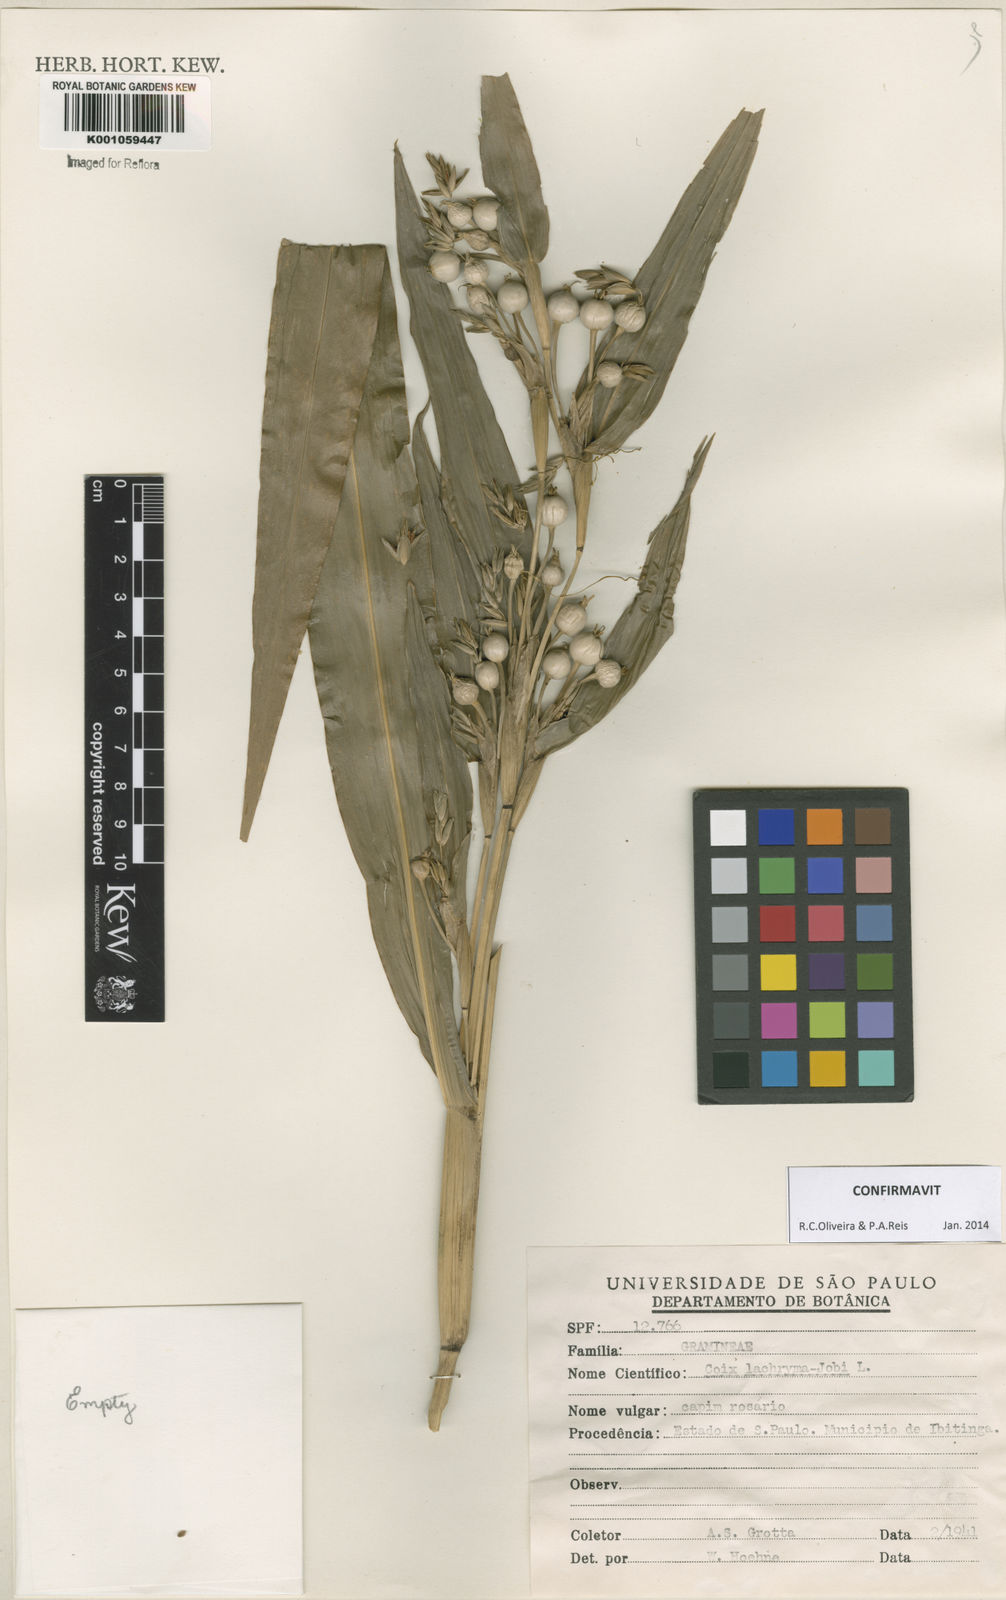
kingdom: Plantae
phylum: Tracheophyta
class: Liliopsida
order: Poales
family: Poaceae
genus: Coix
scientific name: Coix lacryma-jobi
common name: Job's tears
